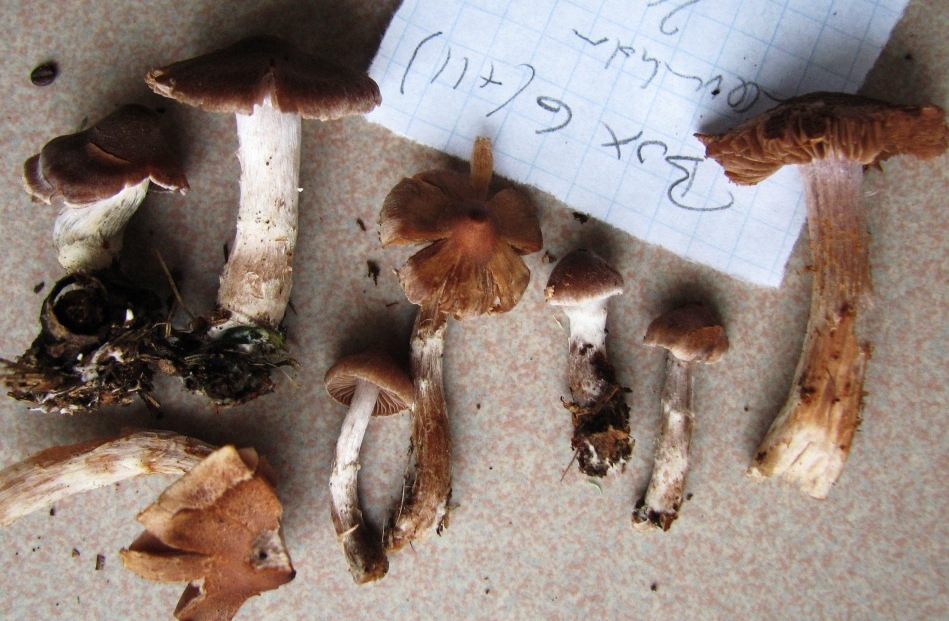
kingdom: Fungi
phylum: Basidiomycota
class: Agaricomycetes
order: Agaricales
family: Cortinariaceae
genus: Cortinarius
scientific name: Cortinarius
